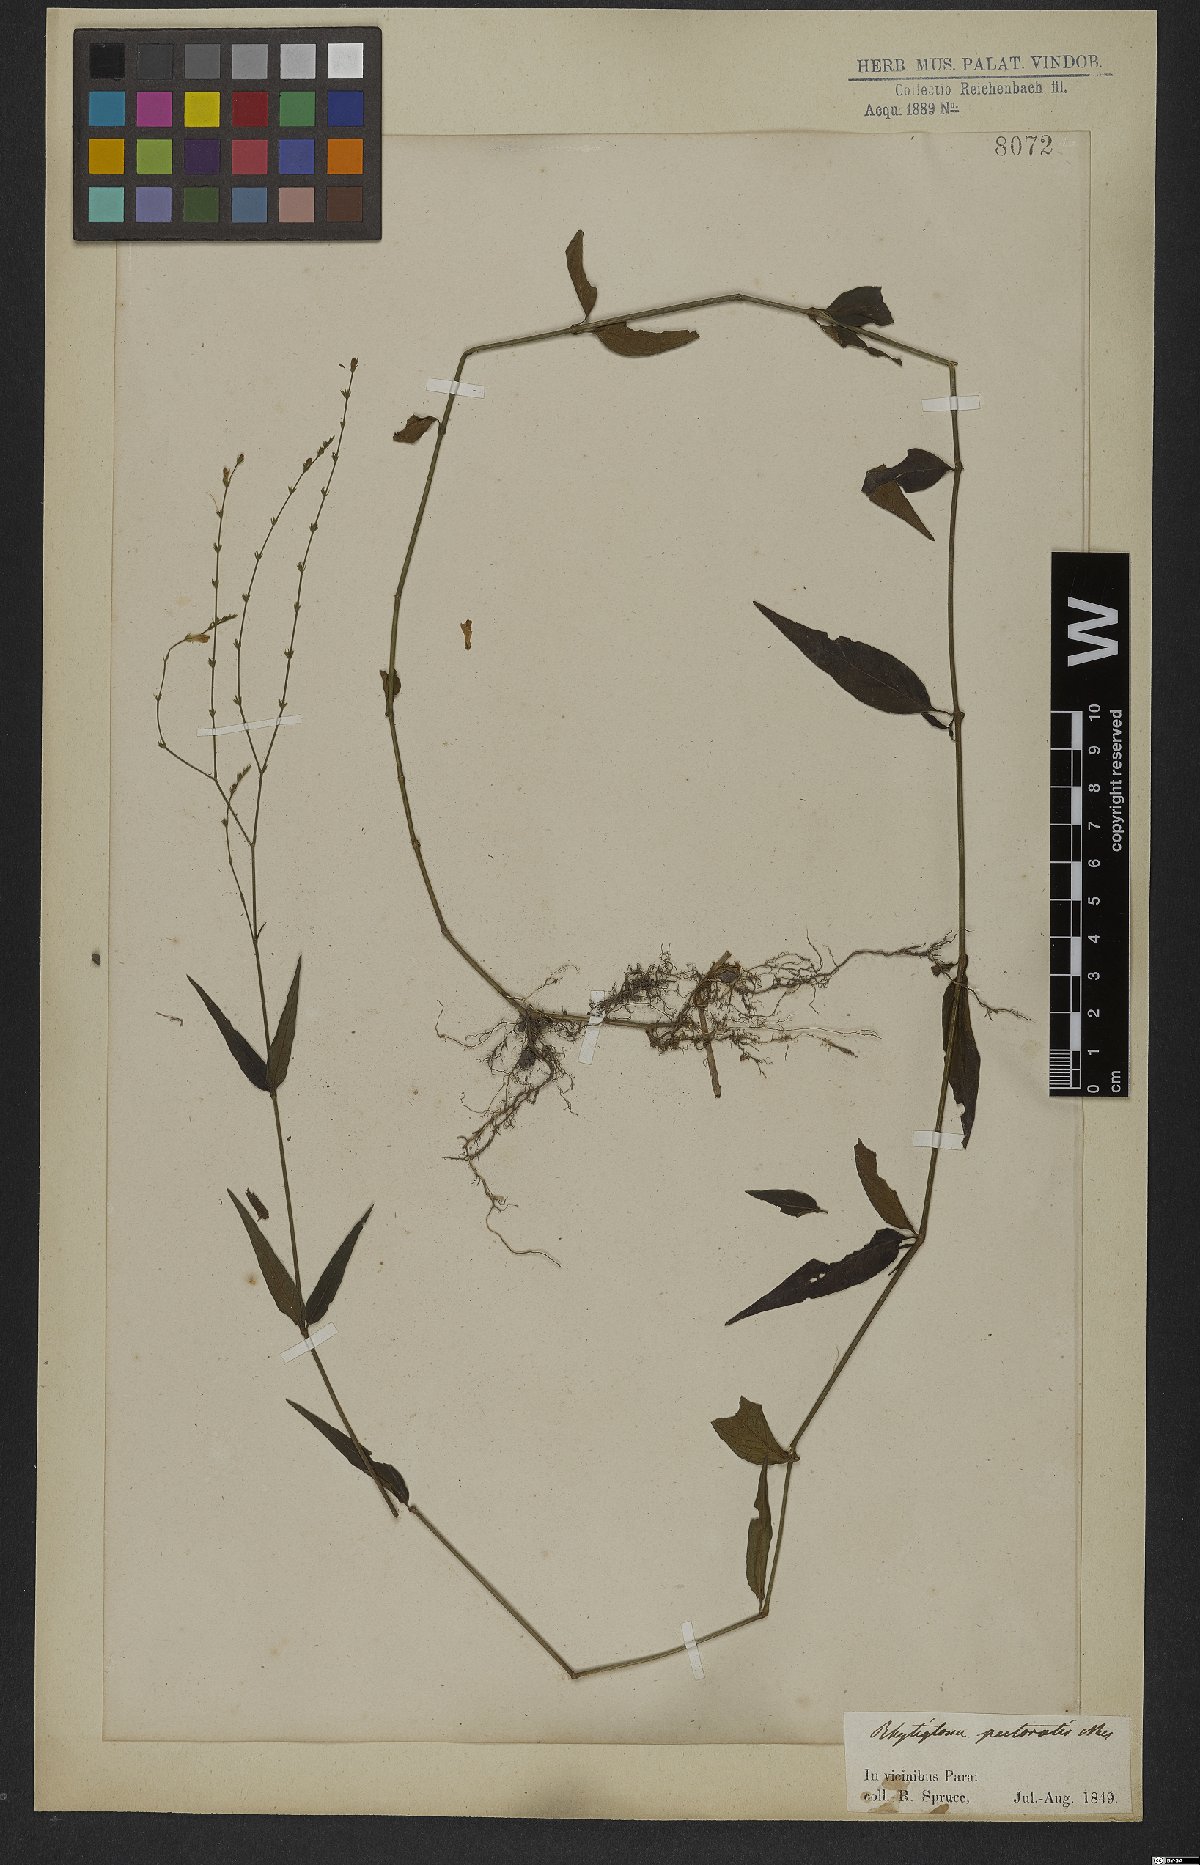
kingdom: Plantae
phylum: Tracheophyta
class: Magnoliopsida
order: Lamiales
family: Acanthaceae
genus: Dianthera
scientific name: Dianthera pectoralis
